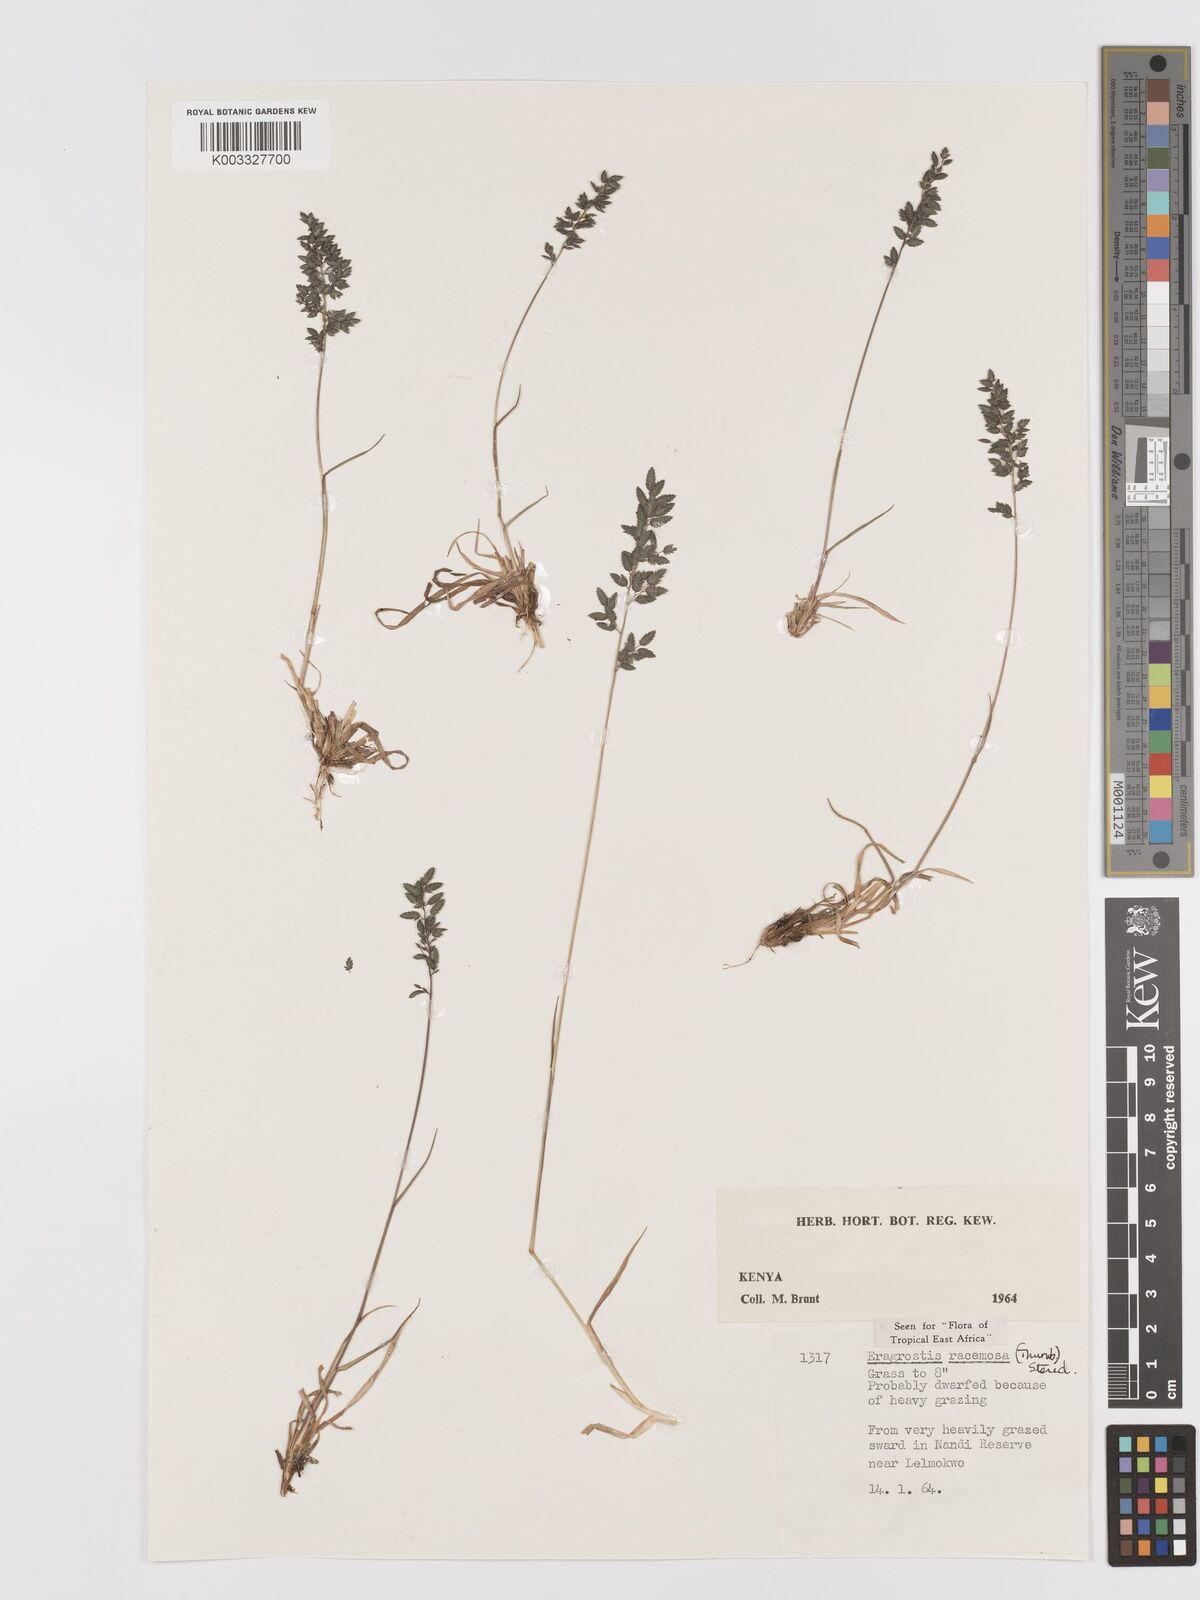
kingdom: Plantae
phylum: Tracheophyta
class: Liliopsida
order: Poales
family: Poaceae
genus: Eragrostis
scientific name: Eragrostis racemosa
